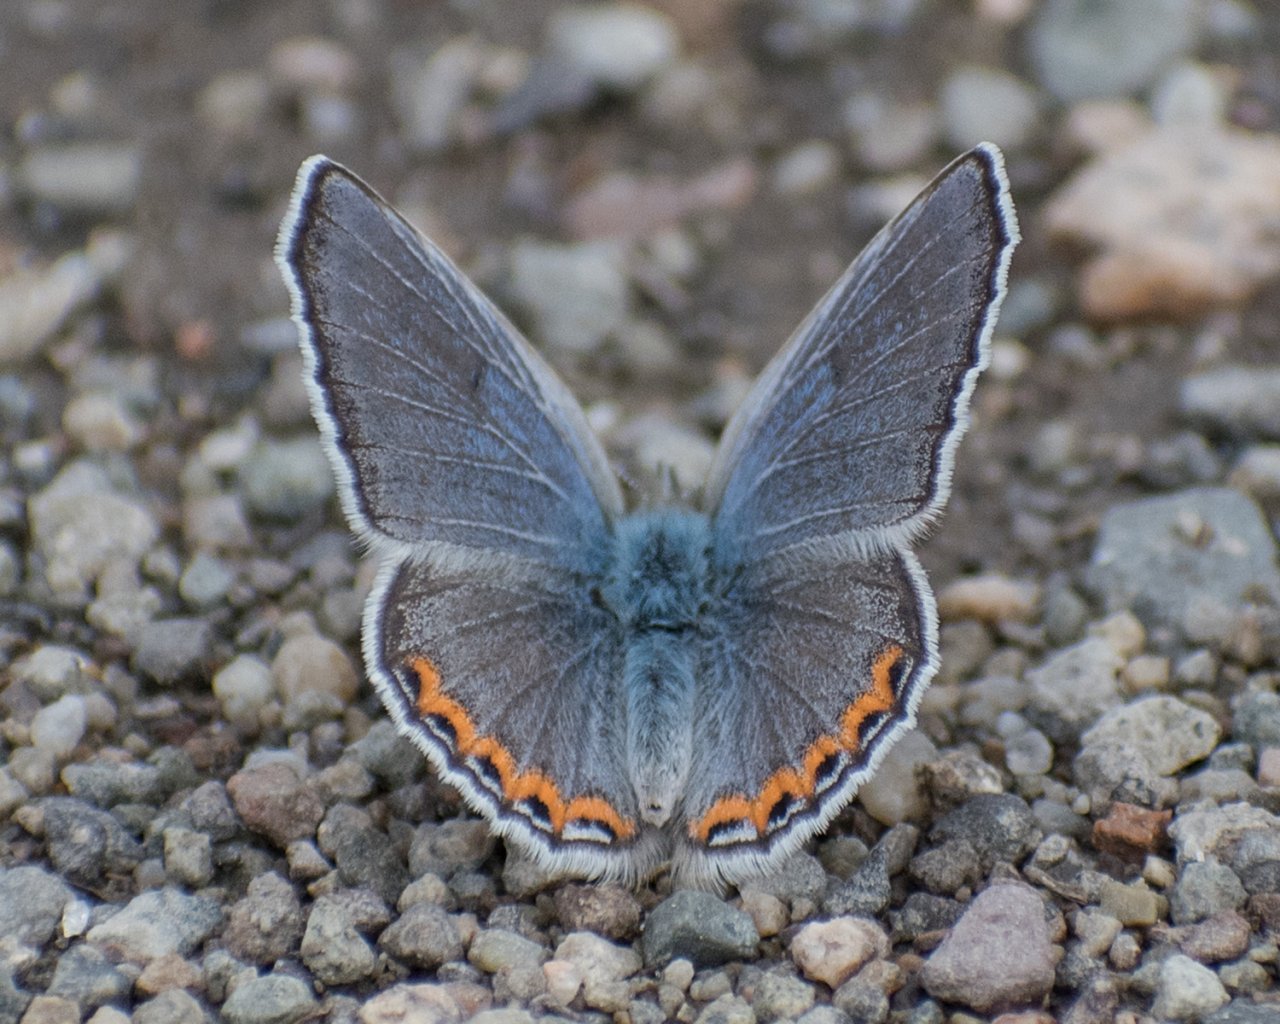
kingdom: Animalia
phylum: Arthropoda
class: Insecta
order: Lepidoptera
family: Lycaenidae
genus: Plebejus
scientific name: Plebejus lupini
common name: Lupine Blue
